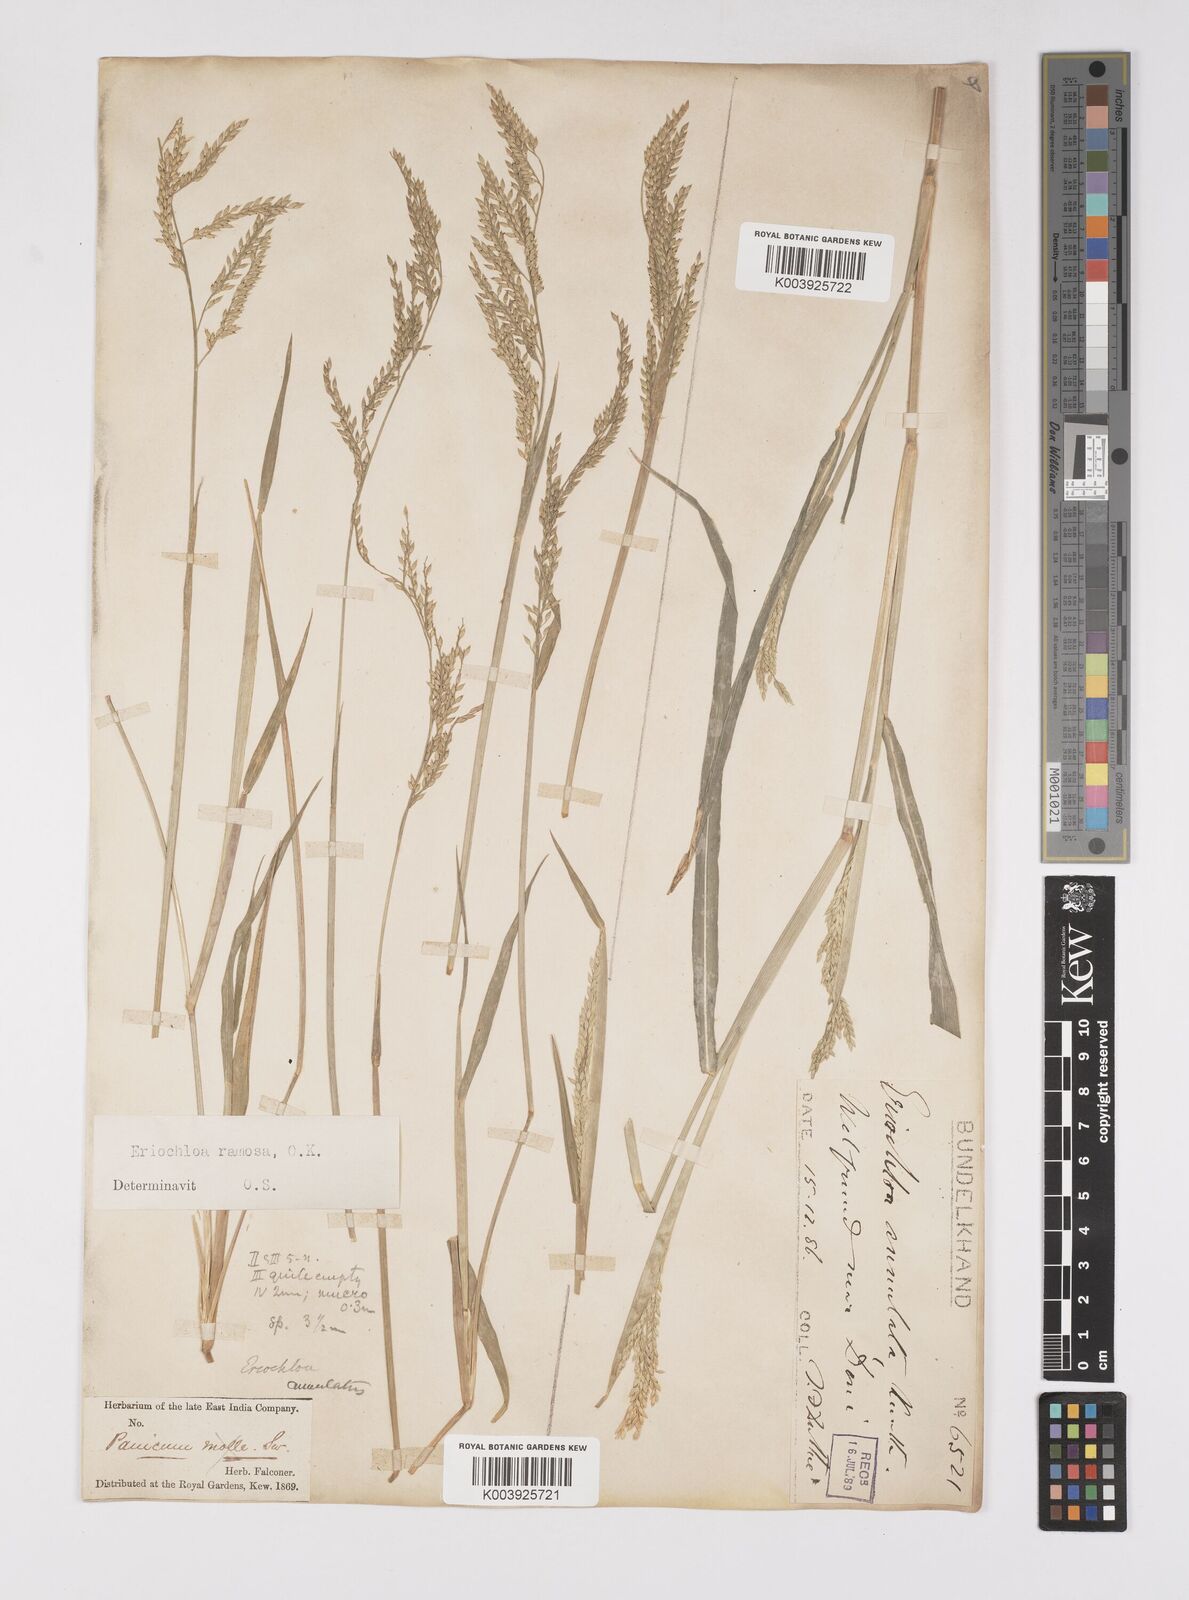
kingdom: Plantae
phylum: Tracheophyta
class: Liliopsida
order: Poales
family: Poaceae
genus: Eriochloa
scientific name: Eriochloa procera
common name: Spring grass
